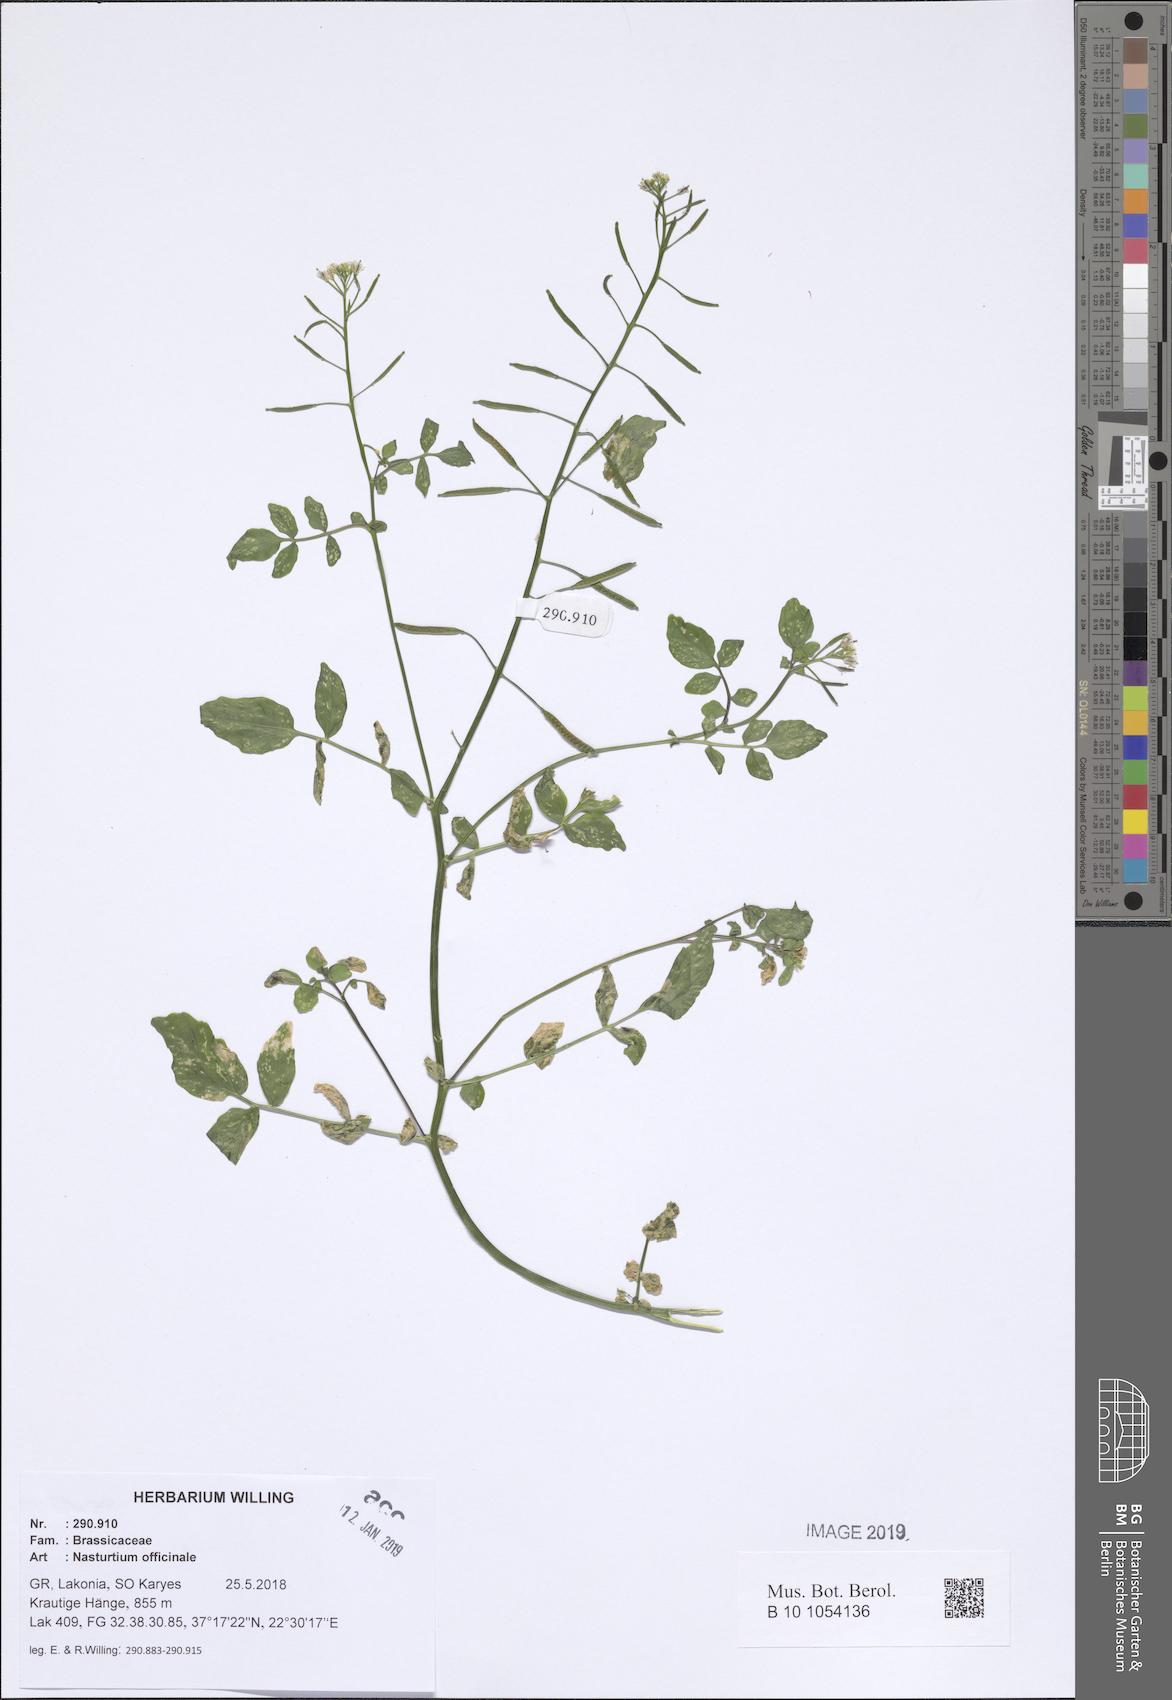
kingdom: Plantae
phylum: Tracheophyta
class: Magnoliopsida
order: Brassicales
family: Brassicaceae
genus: Nasturtium
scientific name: Nasturtium officinale
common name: Watercress
